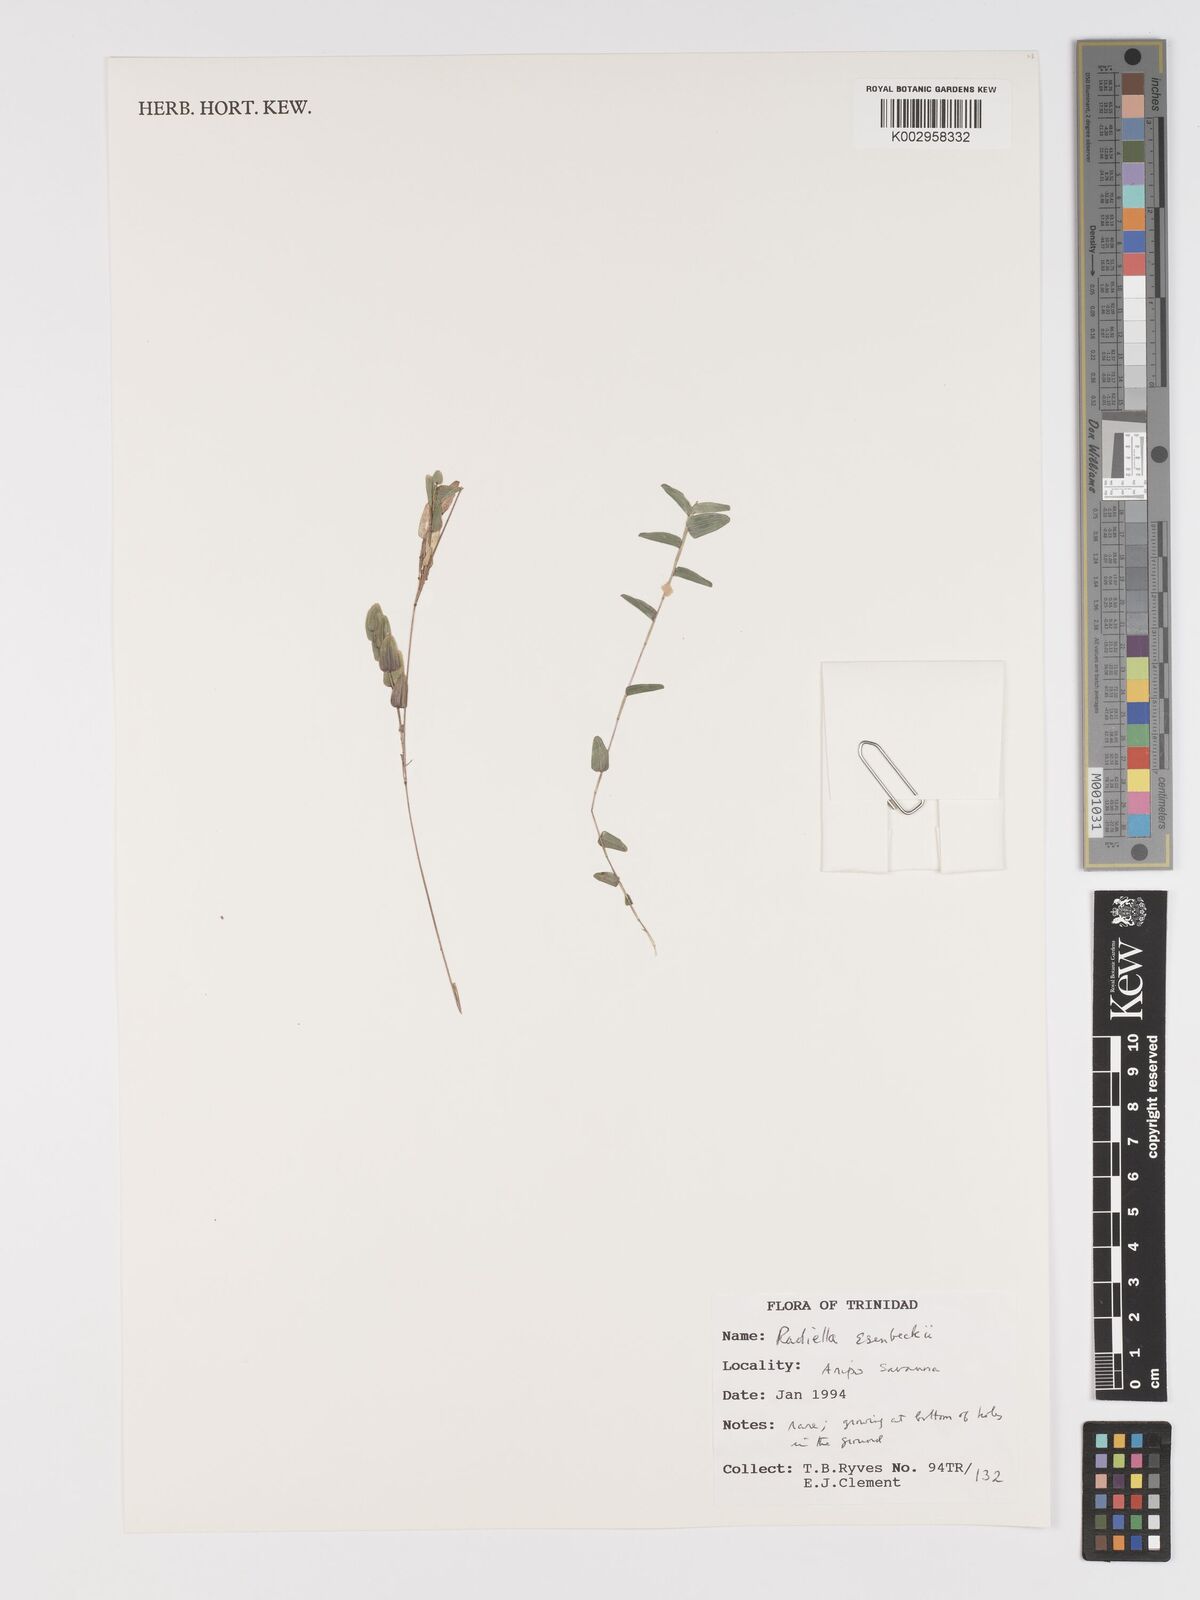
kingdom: Plantae
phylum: Tracheophyta
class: Liliopsida
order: Poales
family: Poaceae
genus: Raddiella
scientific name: Raddiella esenbeckii
